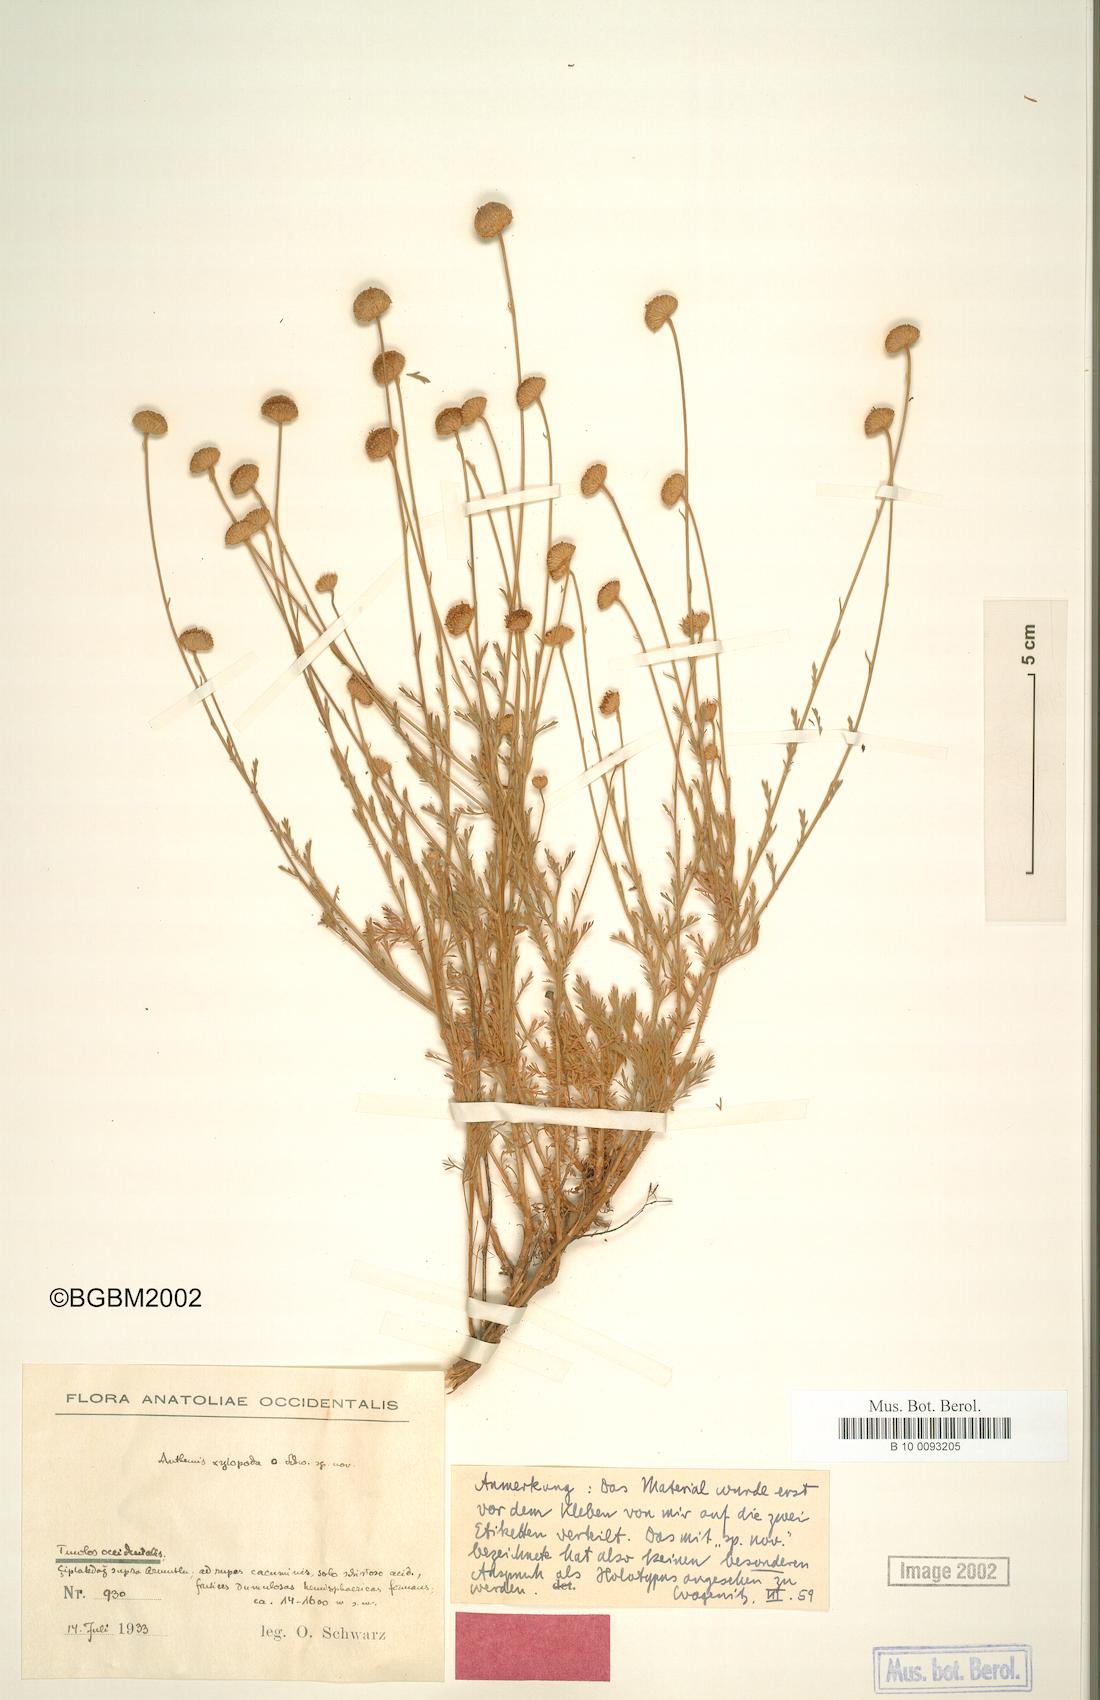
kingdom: Plantae
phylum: Tracheophyta
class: Magnoliopsida
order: Asterales
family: Asteraceae
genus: Anthemis
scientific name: Anthemis xylopoda
